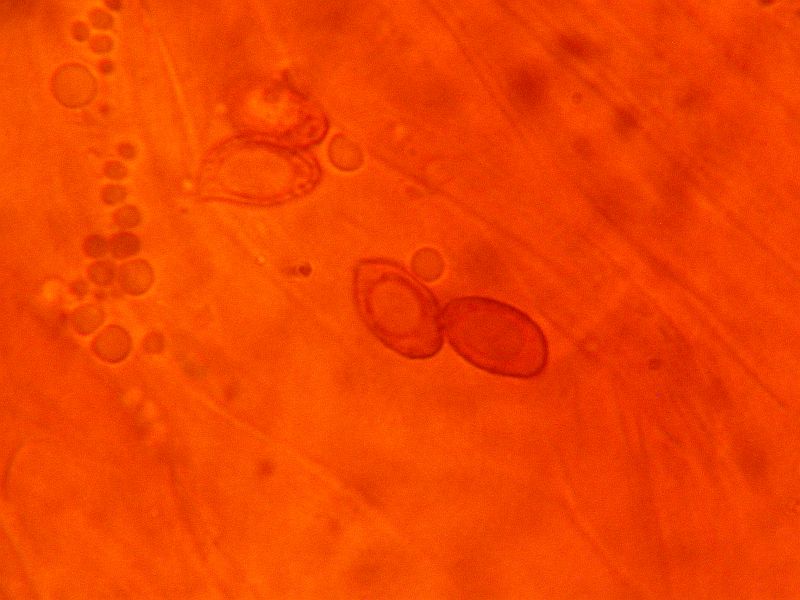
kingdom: Fungi
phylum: Basidiomycota
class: Agaricomycetes
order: Agaricales
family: Cortinariaceae
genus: Cortinarius
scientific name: Cortinarius sphagnoravus
